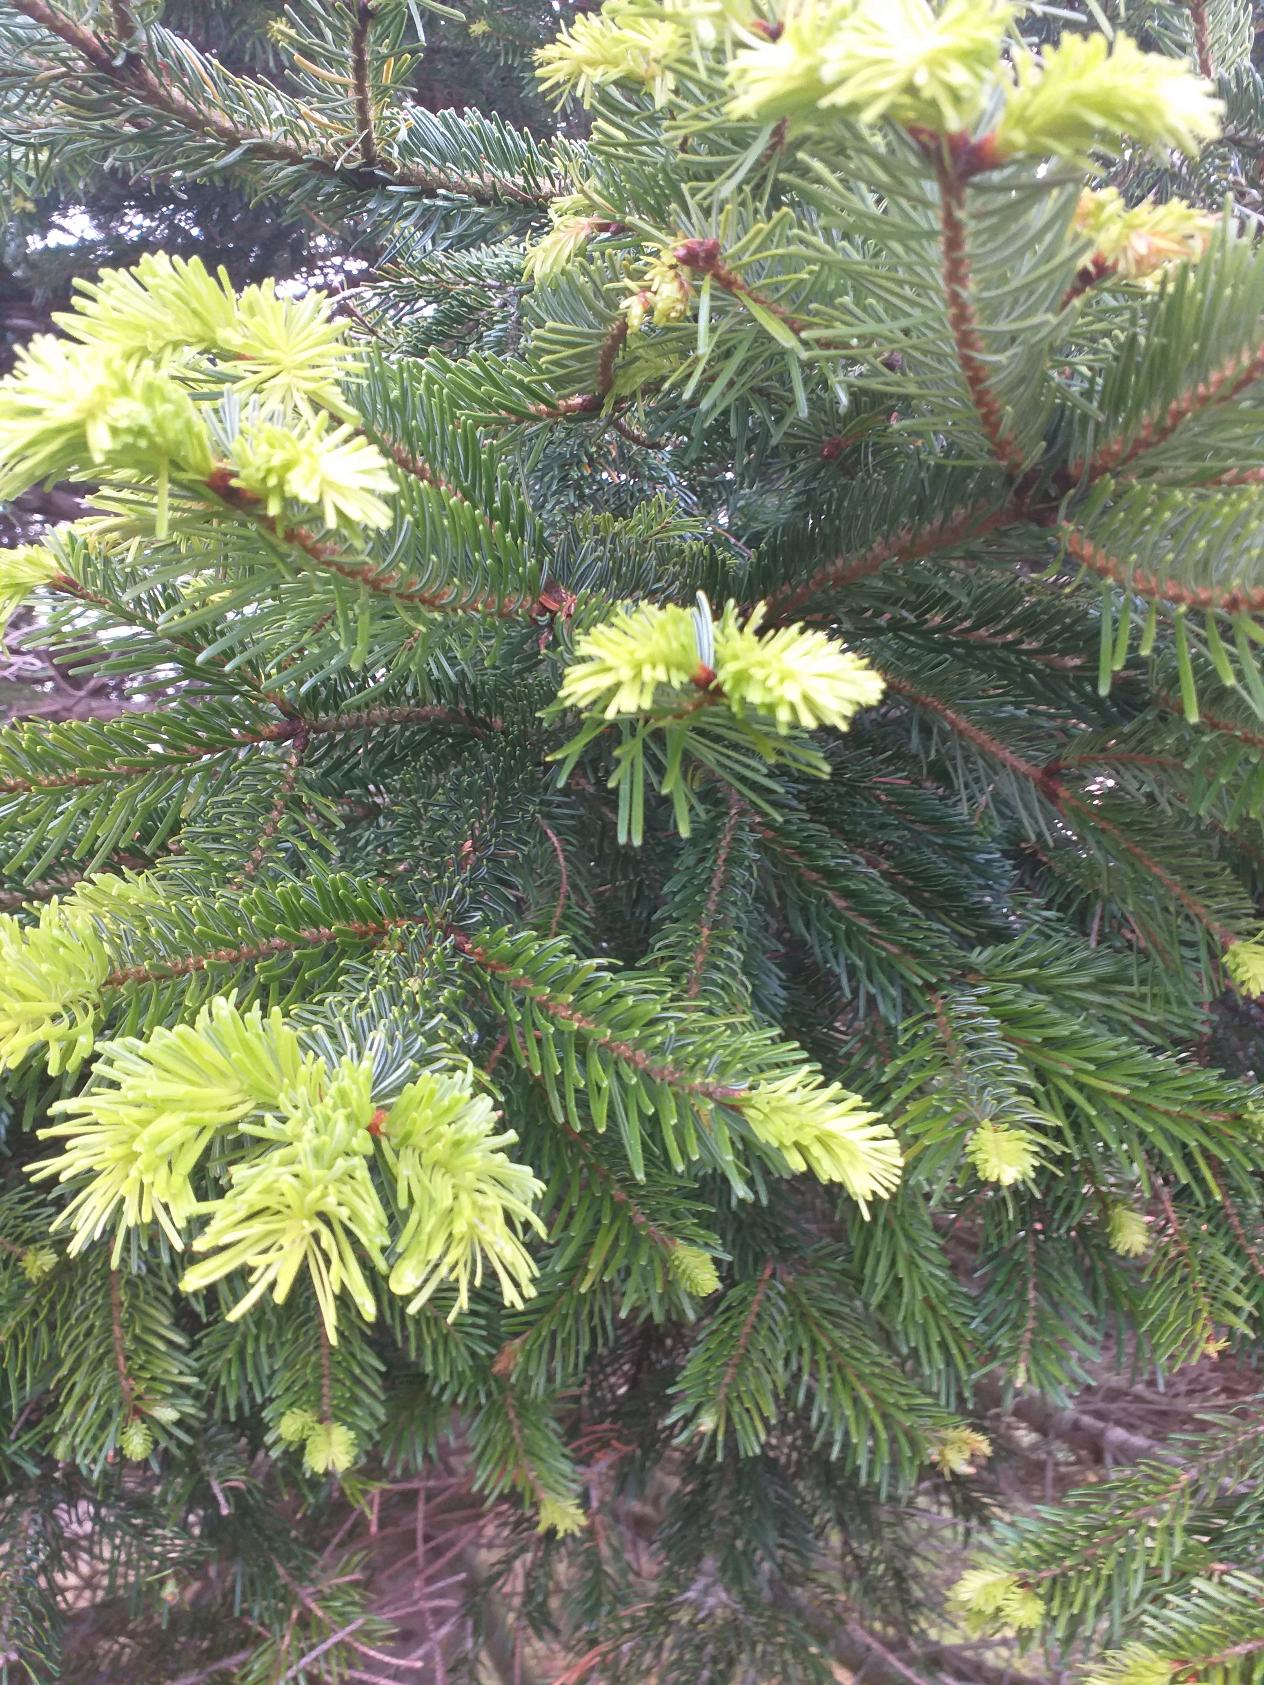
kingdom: Plantae
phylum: Tracheophyta
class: Pinopsida
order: Pinales
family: Pinaceae
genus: Abies
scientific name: Abies nordmanniana
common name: Nordmannsgran
